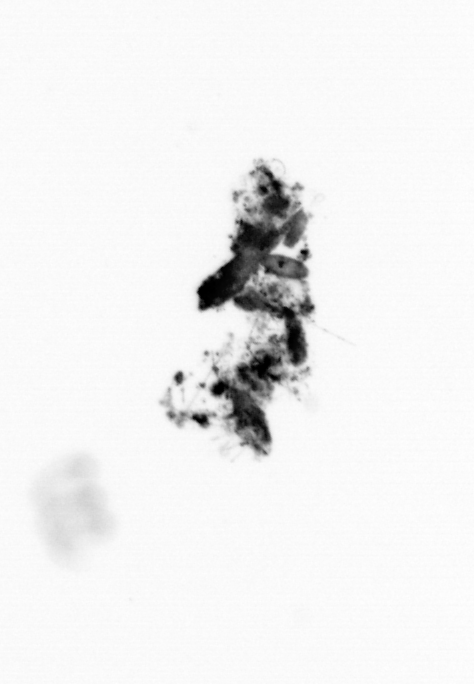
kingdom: Animalia
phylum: Annelida
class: Polychaeta
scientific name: Polychaeta
